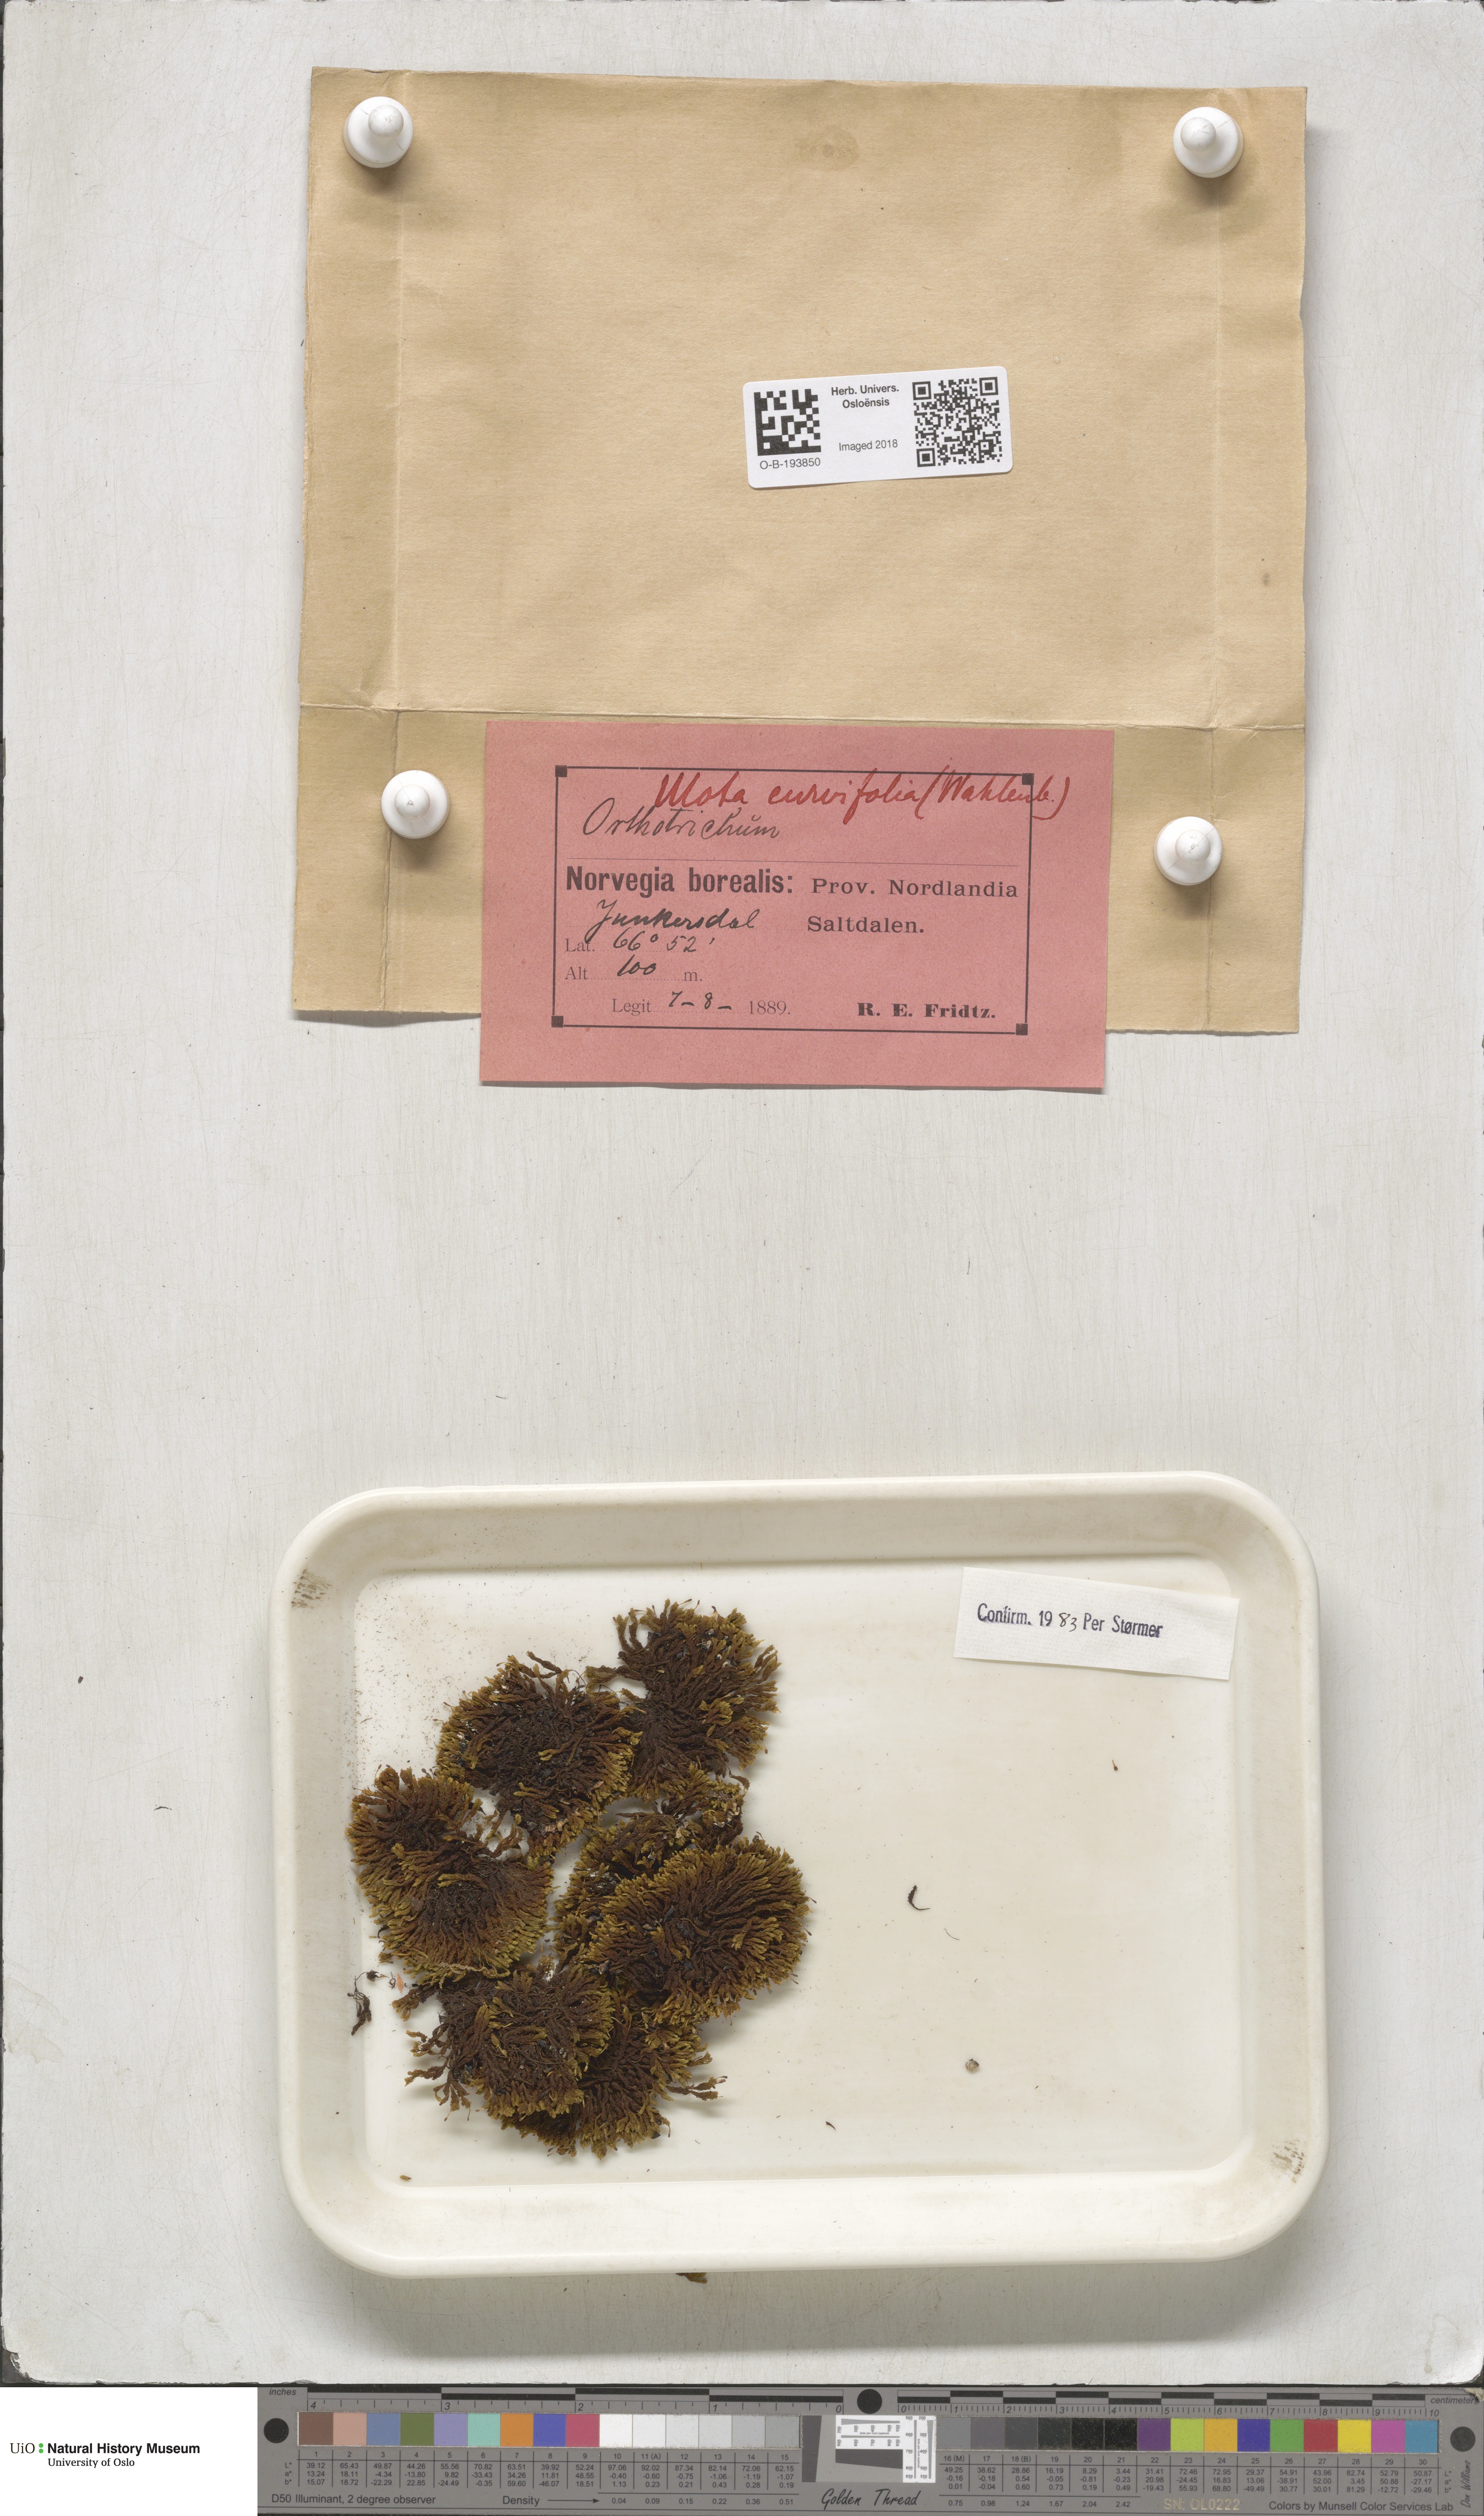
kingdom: Plantae
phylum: Bryophyta
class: Bryopsida
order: Orthotrichales
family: Orthotrichaceae
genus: Ulota
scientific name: Ulota curvifolia
